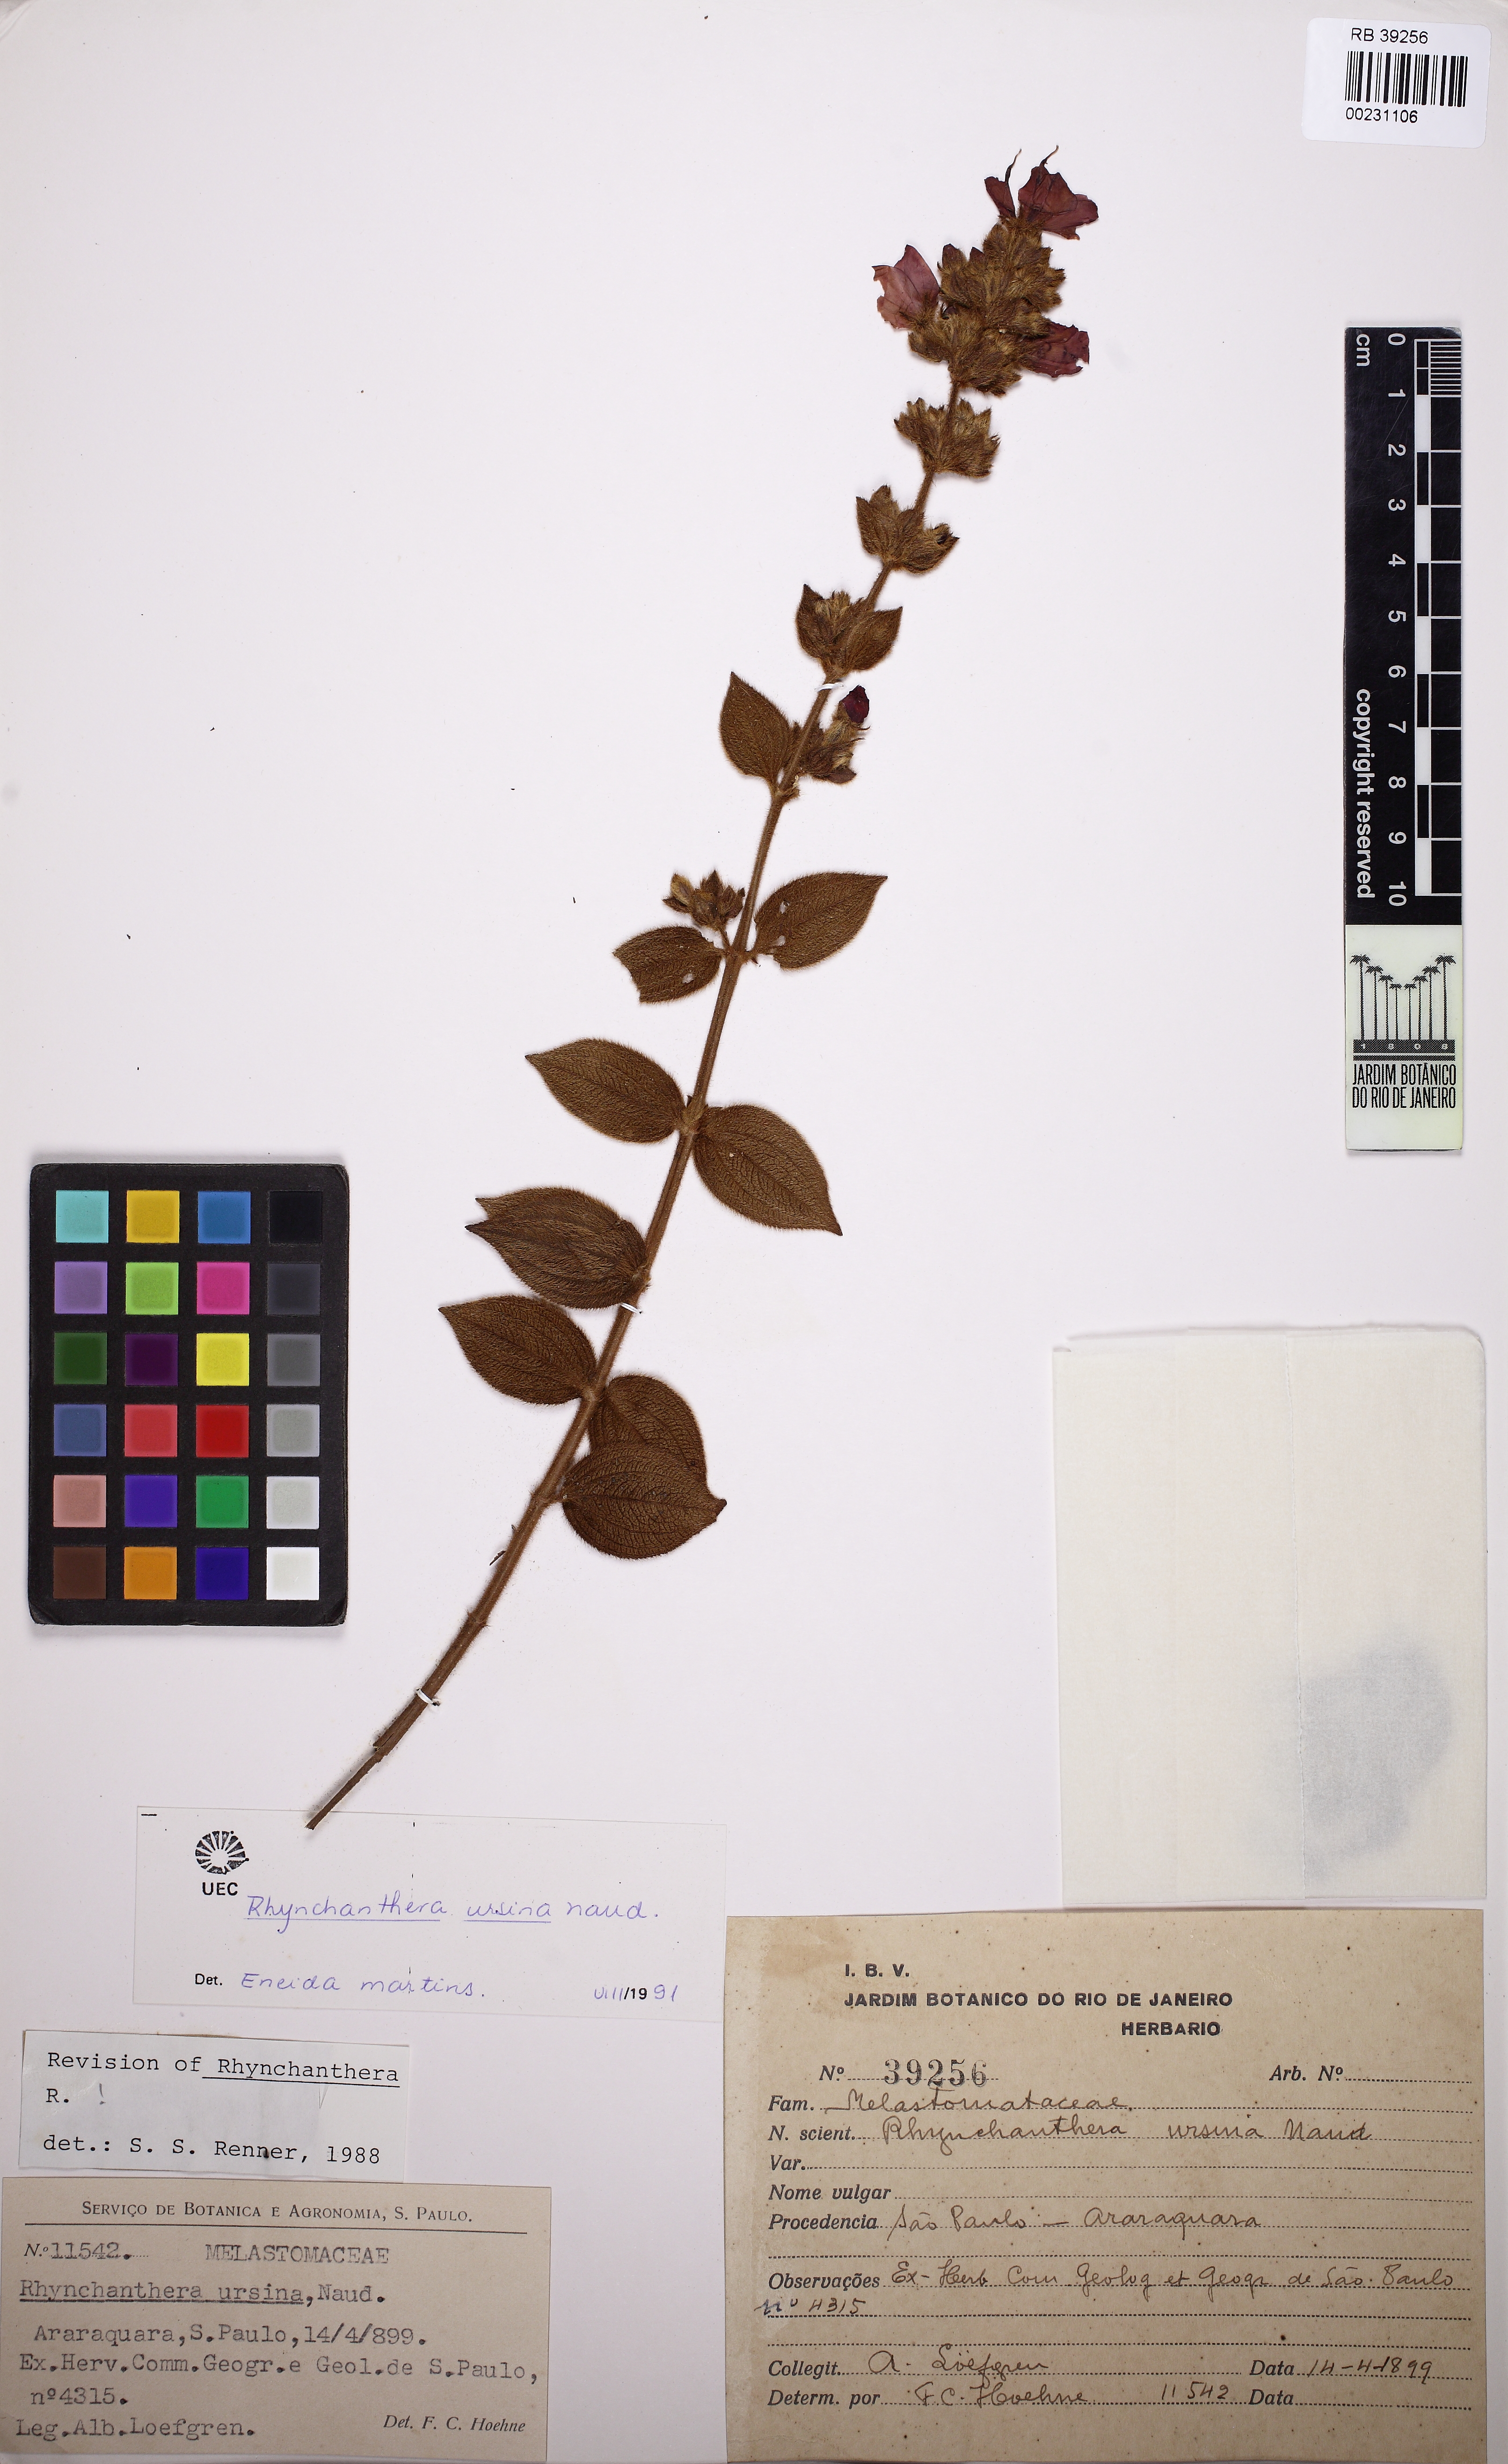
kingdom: Plantae
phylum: Tracheophyta
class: Magnoliopsida
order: Myrtales
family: Melastomataceae
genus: Rhynchanthera
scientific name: Rhynchanthera ursina
